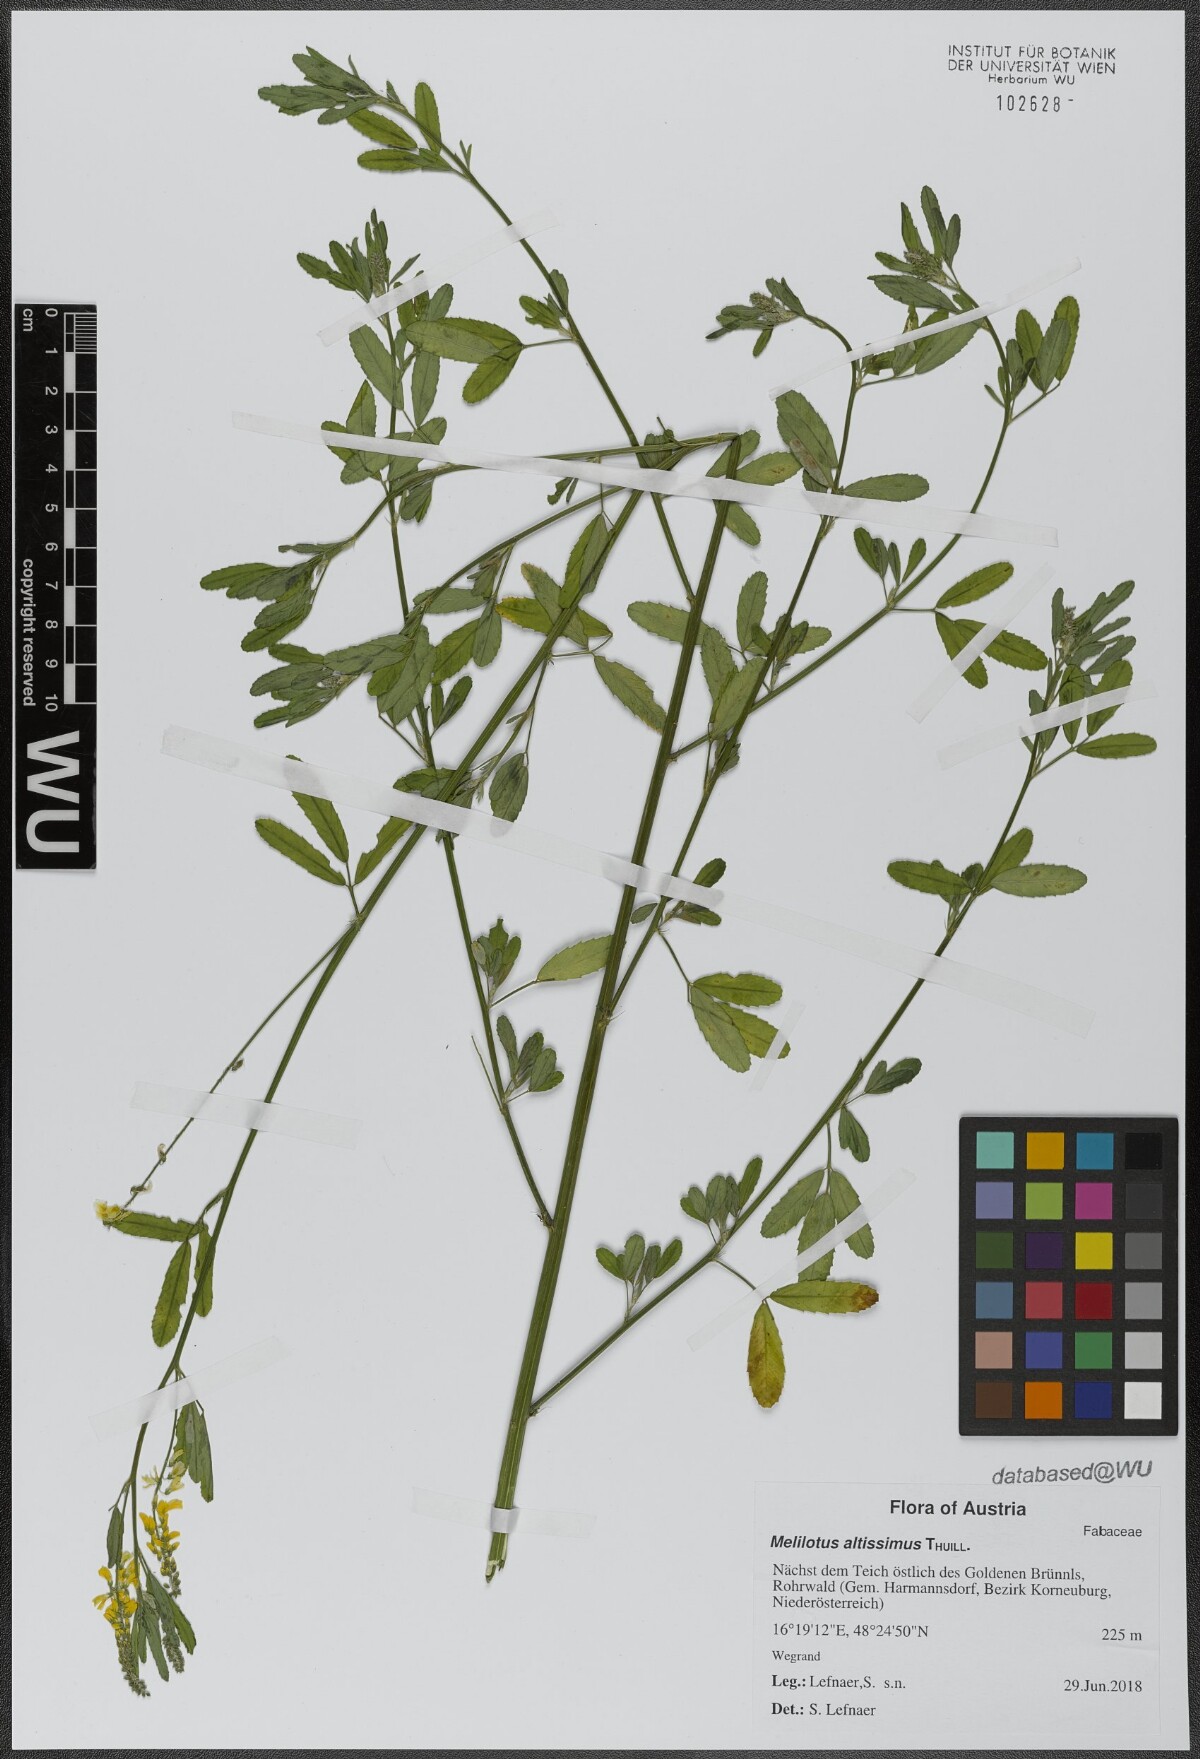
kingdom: Plantae
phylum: Tracheophyta
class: Magnoliopsida
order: Fabales
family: Fabaceae
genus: Melilotus
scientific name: Melilotus altissimus
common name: Tall melilot
